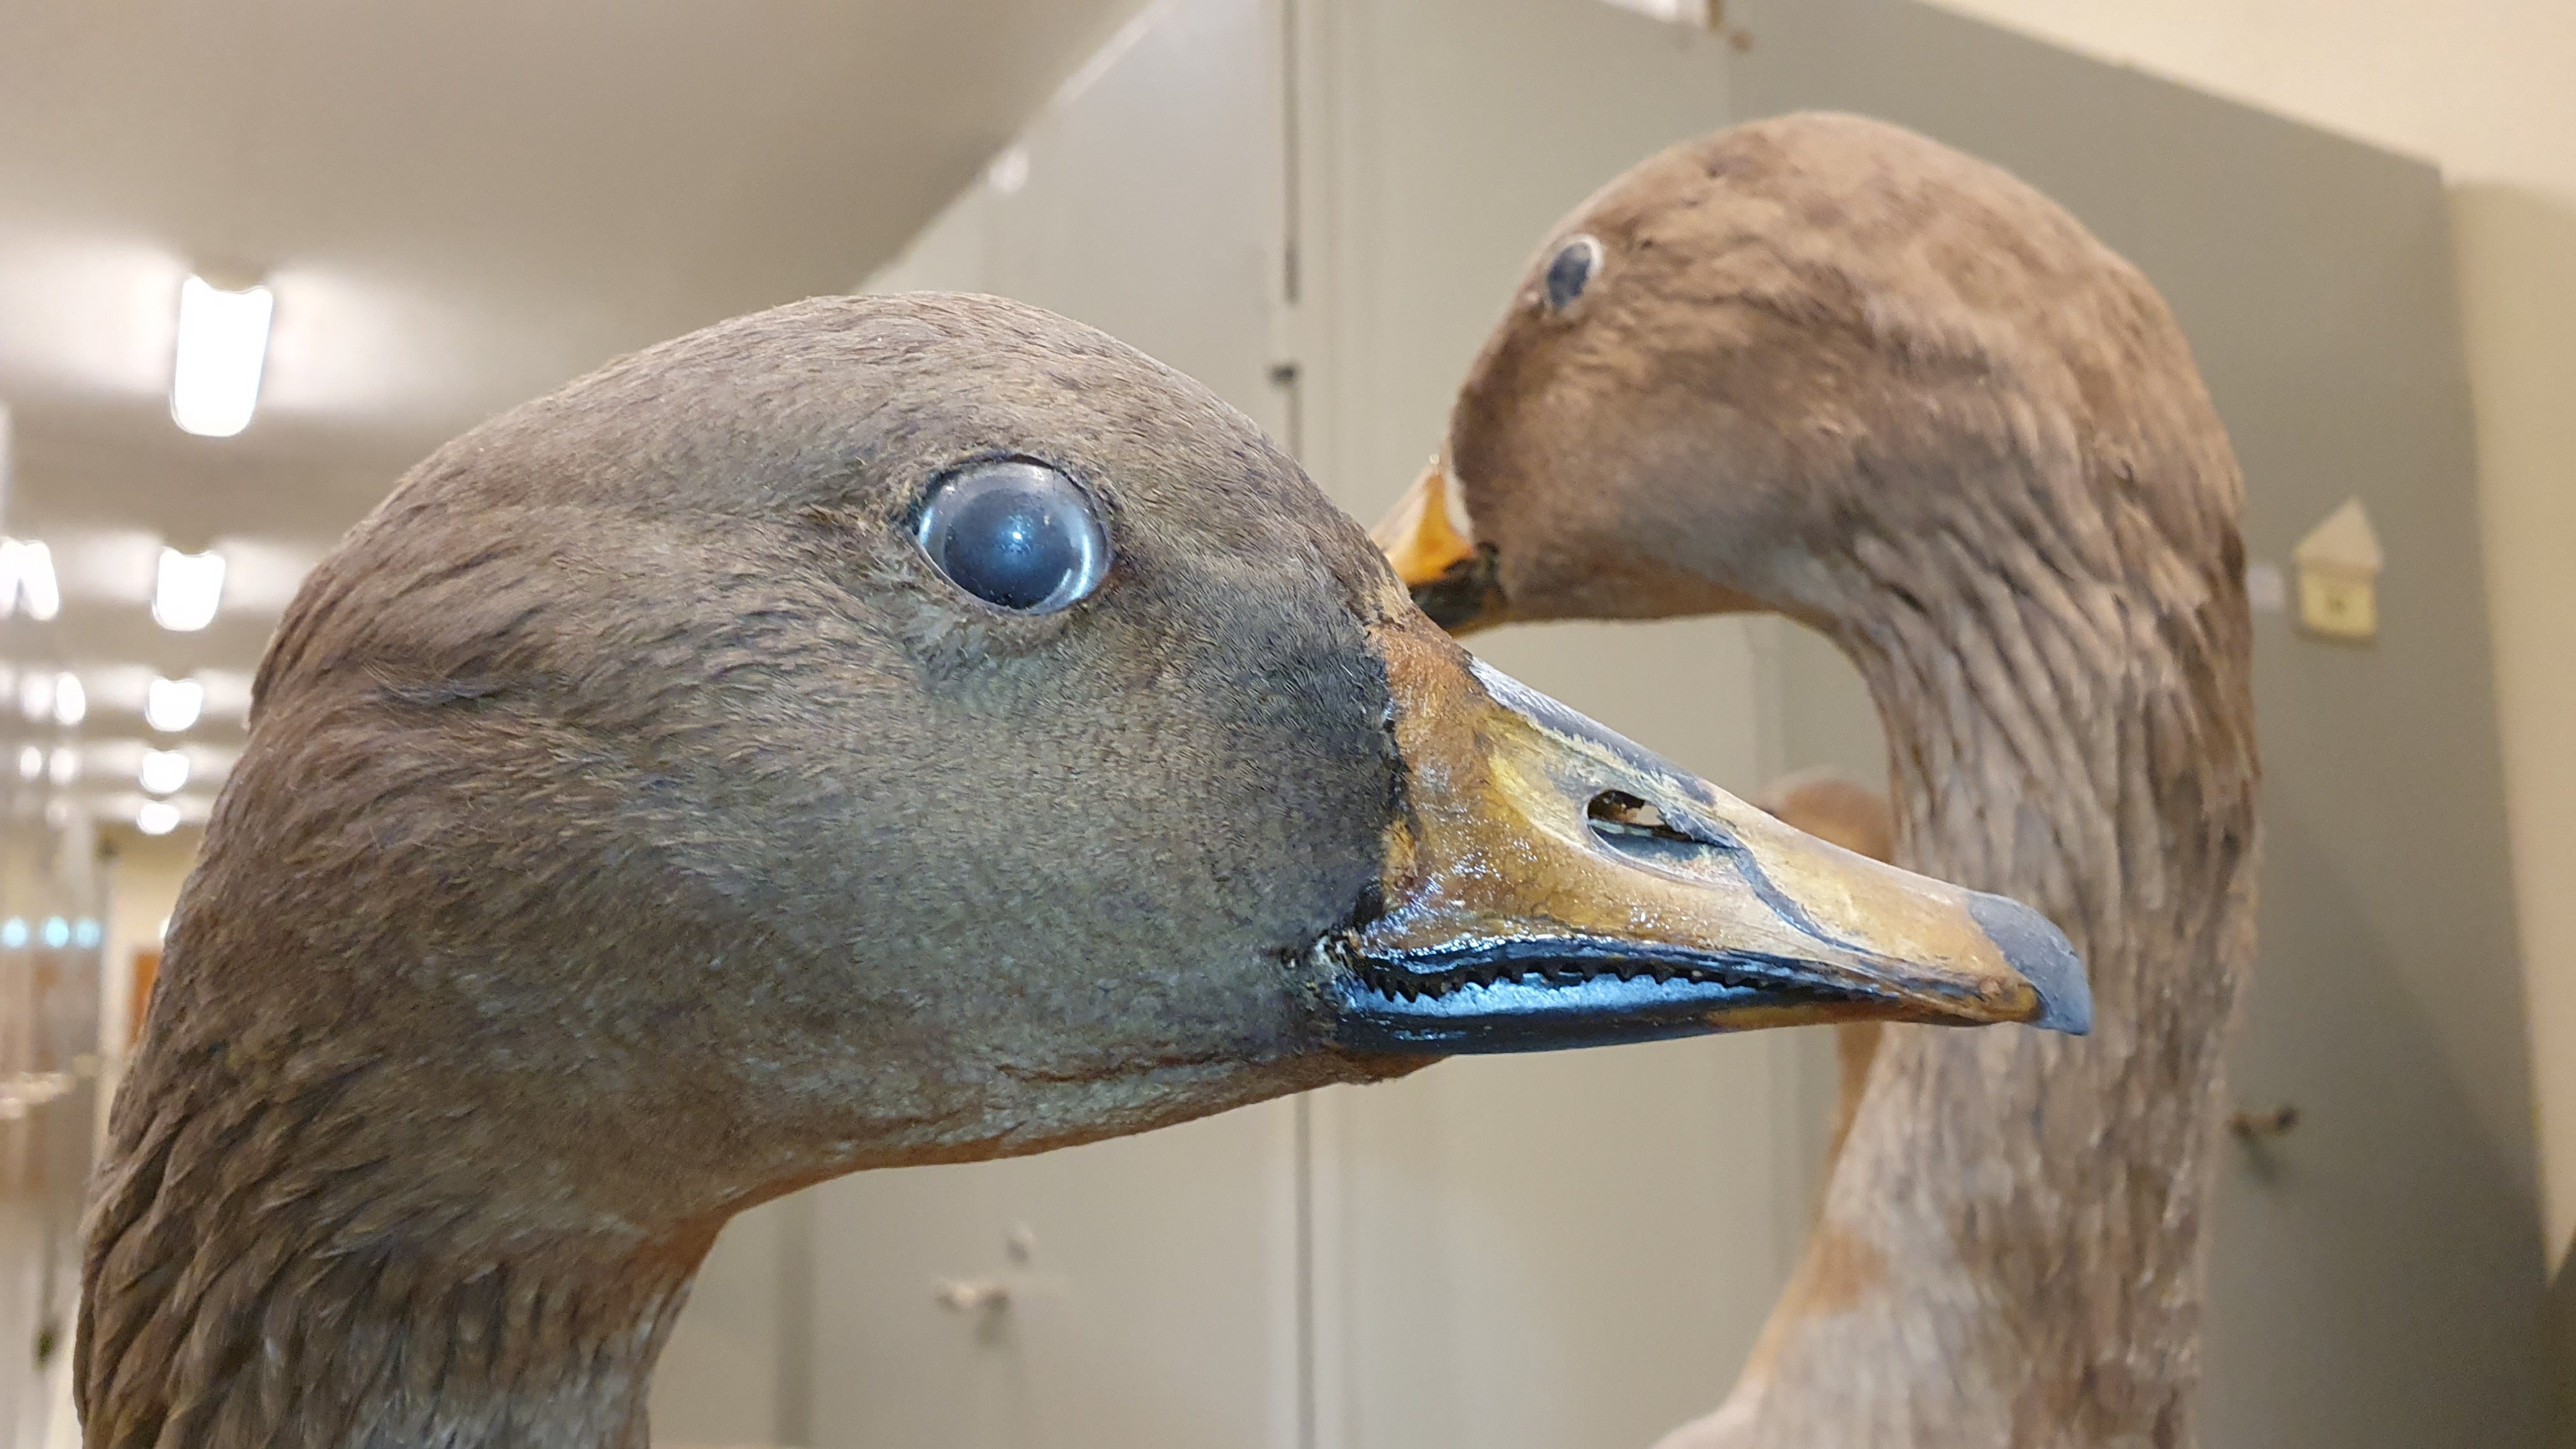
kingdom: Animalia
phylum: Chordata
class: Aves
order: Anseriformes
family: Anatidae
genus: Anser
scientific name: Anser fabalis
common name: Bean goose
